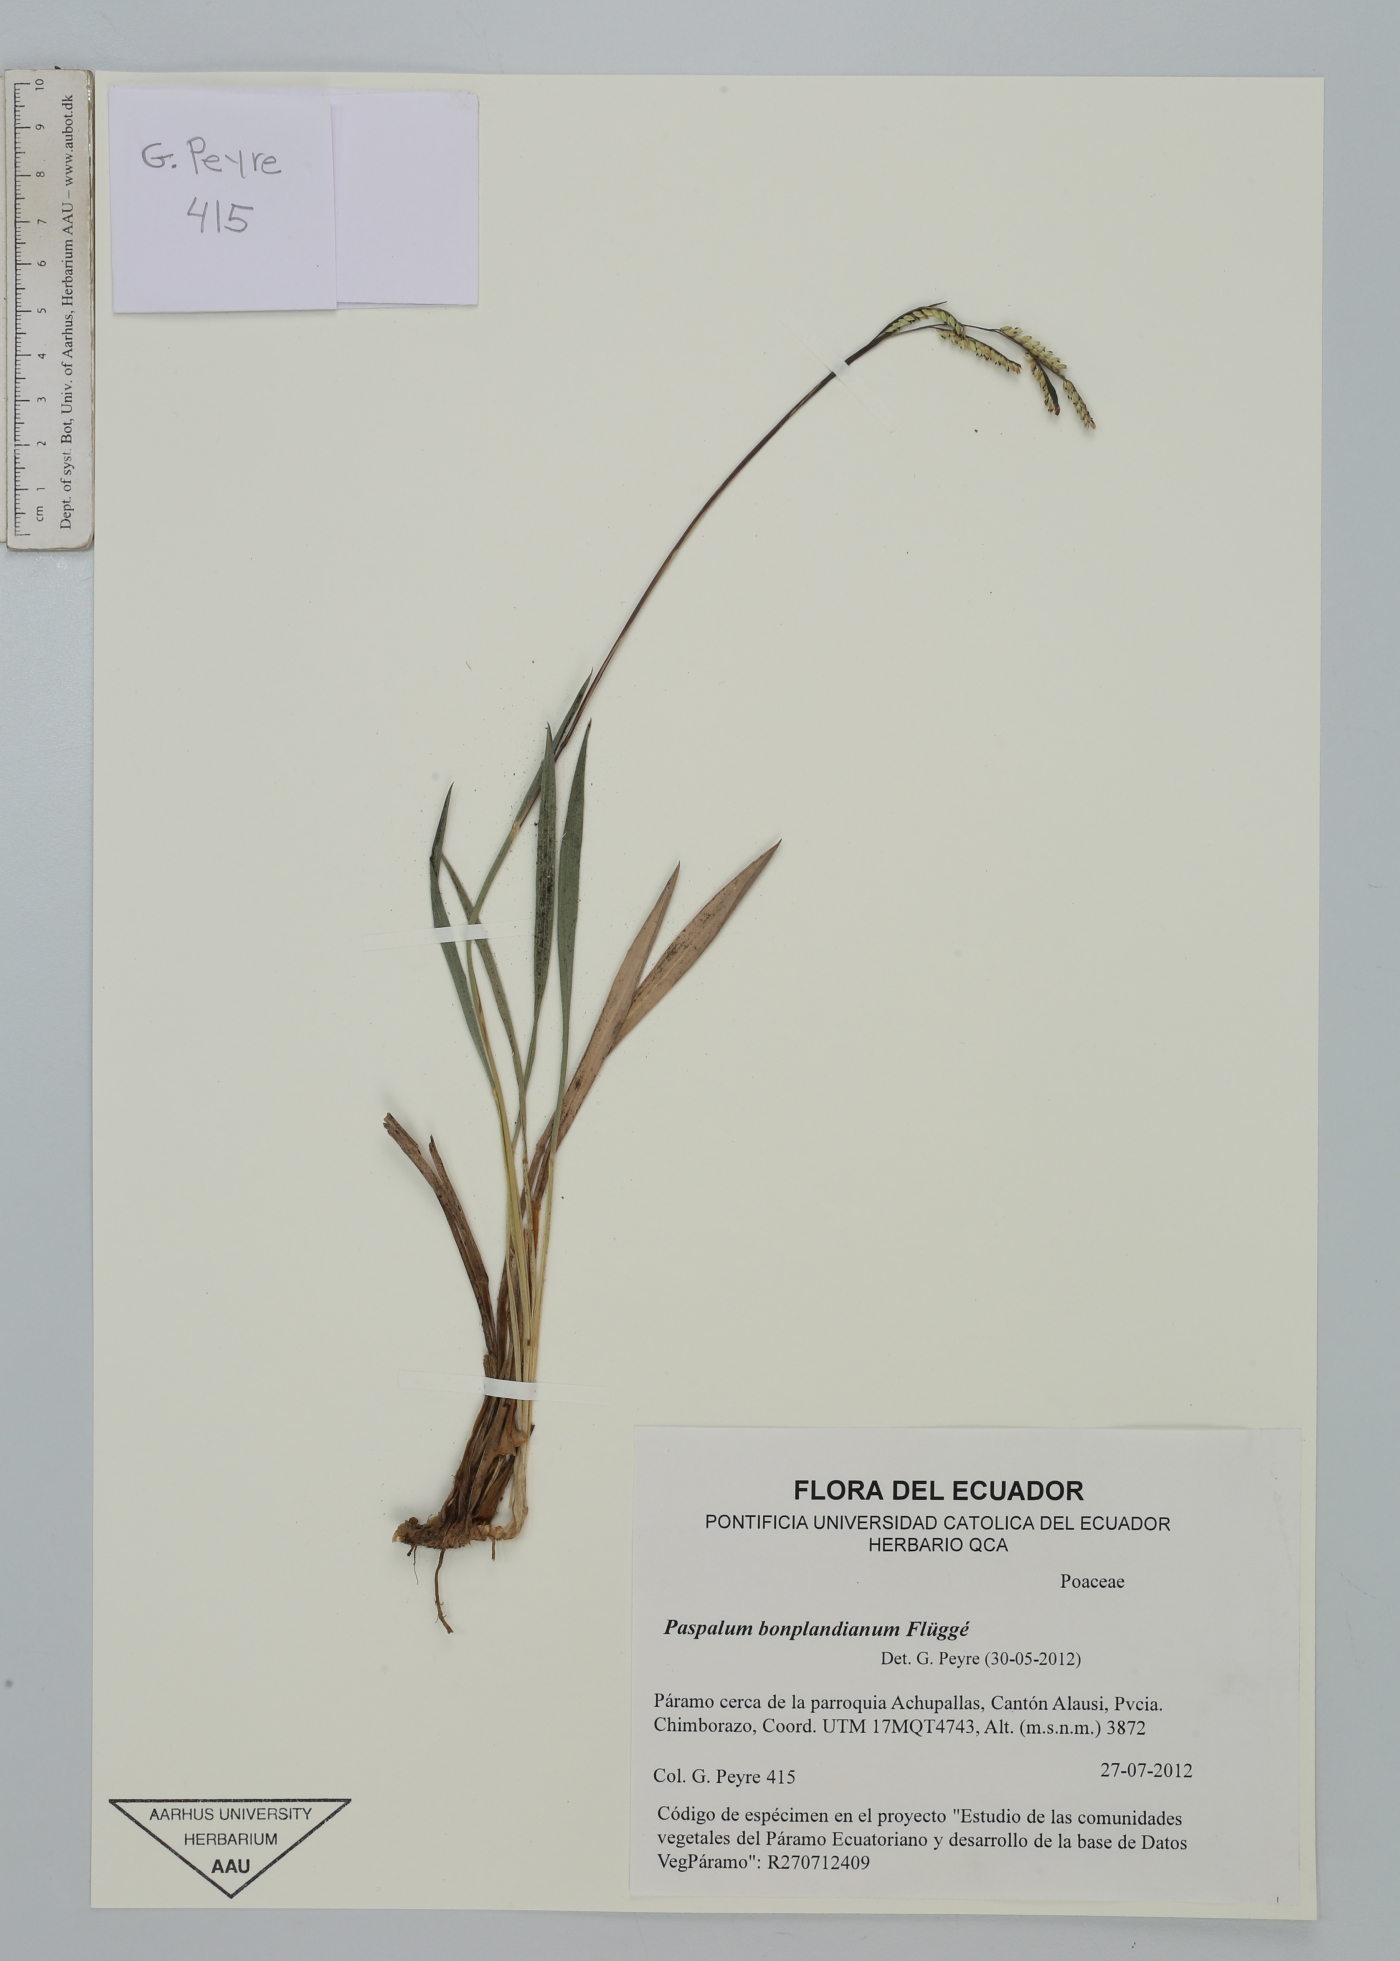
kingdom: Plantae
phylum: Tracheophyta
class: Liliopsida
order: Poales
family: Poaceae
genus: Paspalum
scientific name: Paspalum bonplandianum
